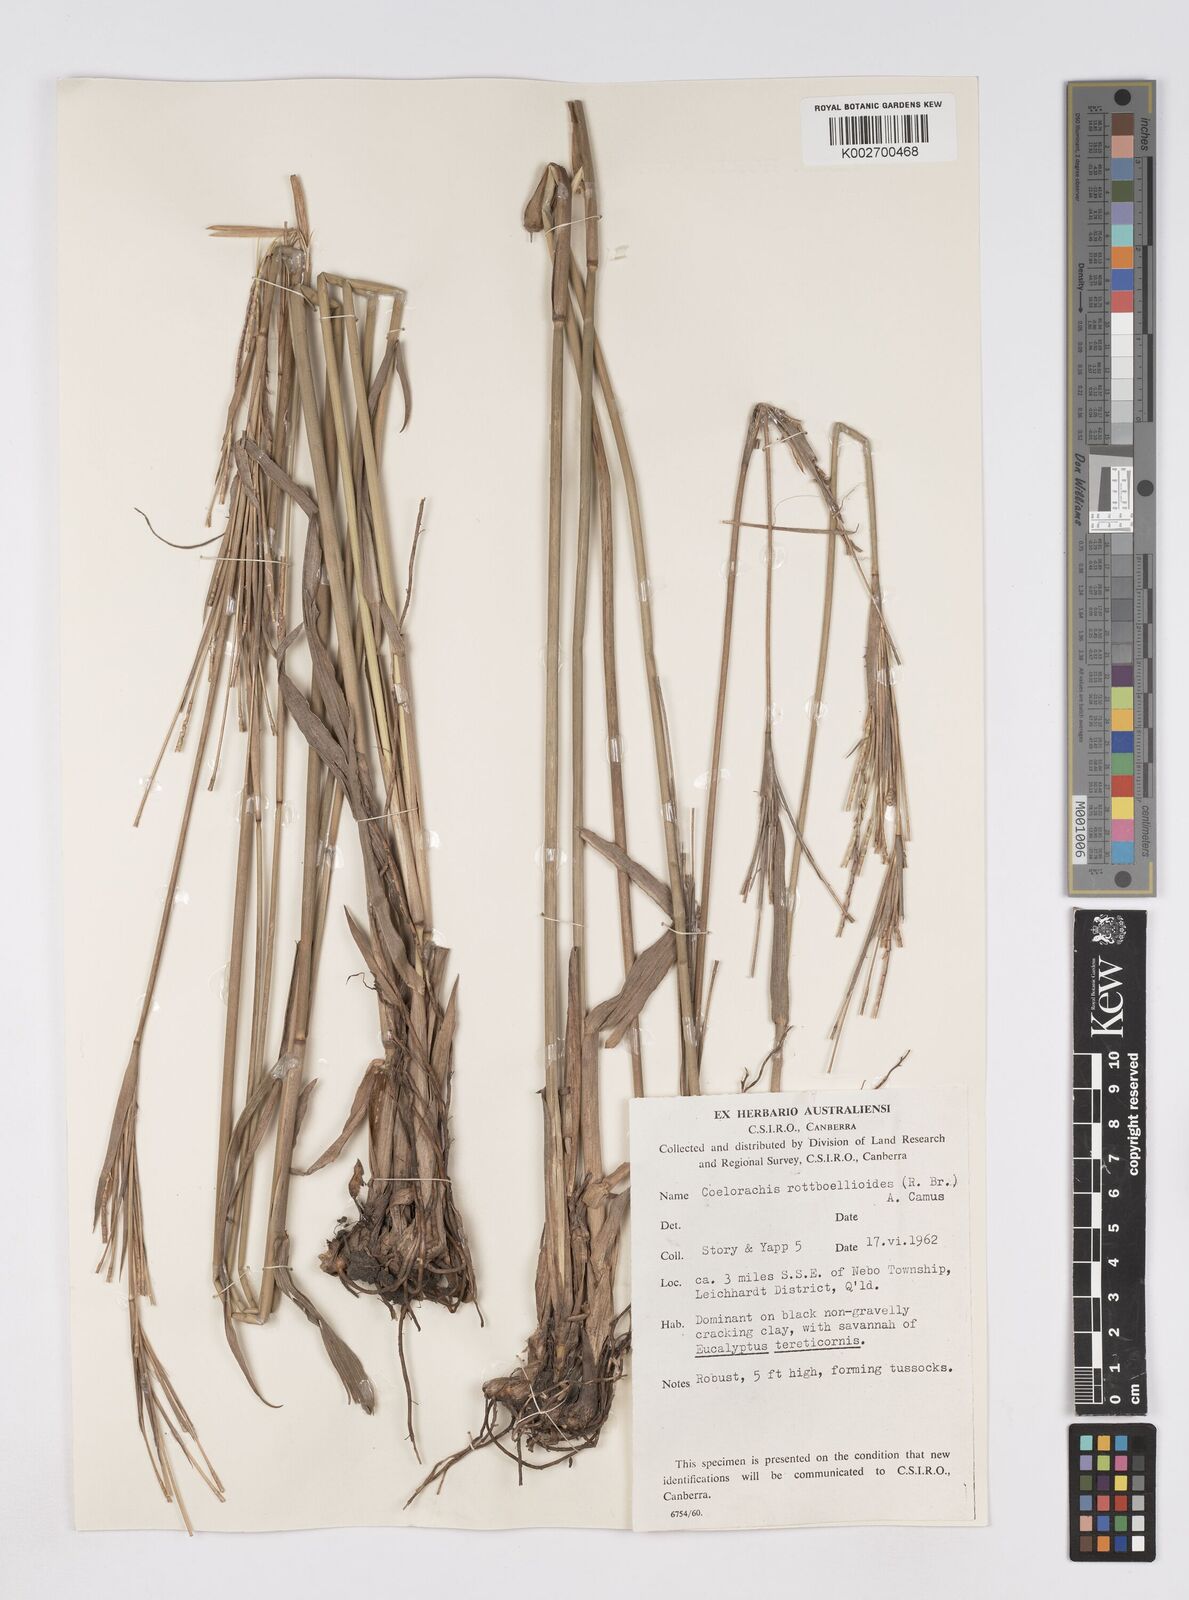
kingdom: Plantae
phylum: Tracheophyta
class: Liliopsida
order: Poales
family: Poaceae
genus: Rottboellia
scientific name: Rottboellia rottboellioides
